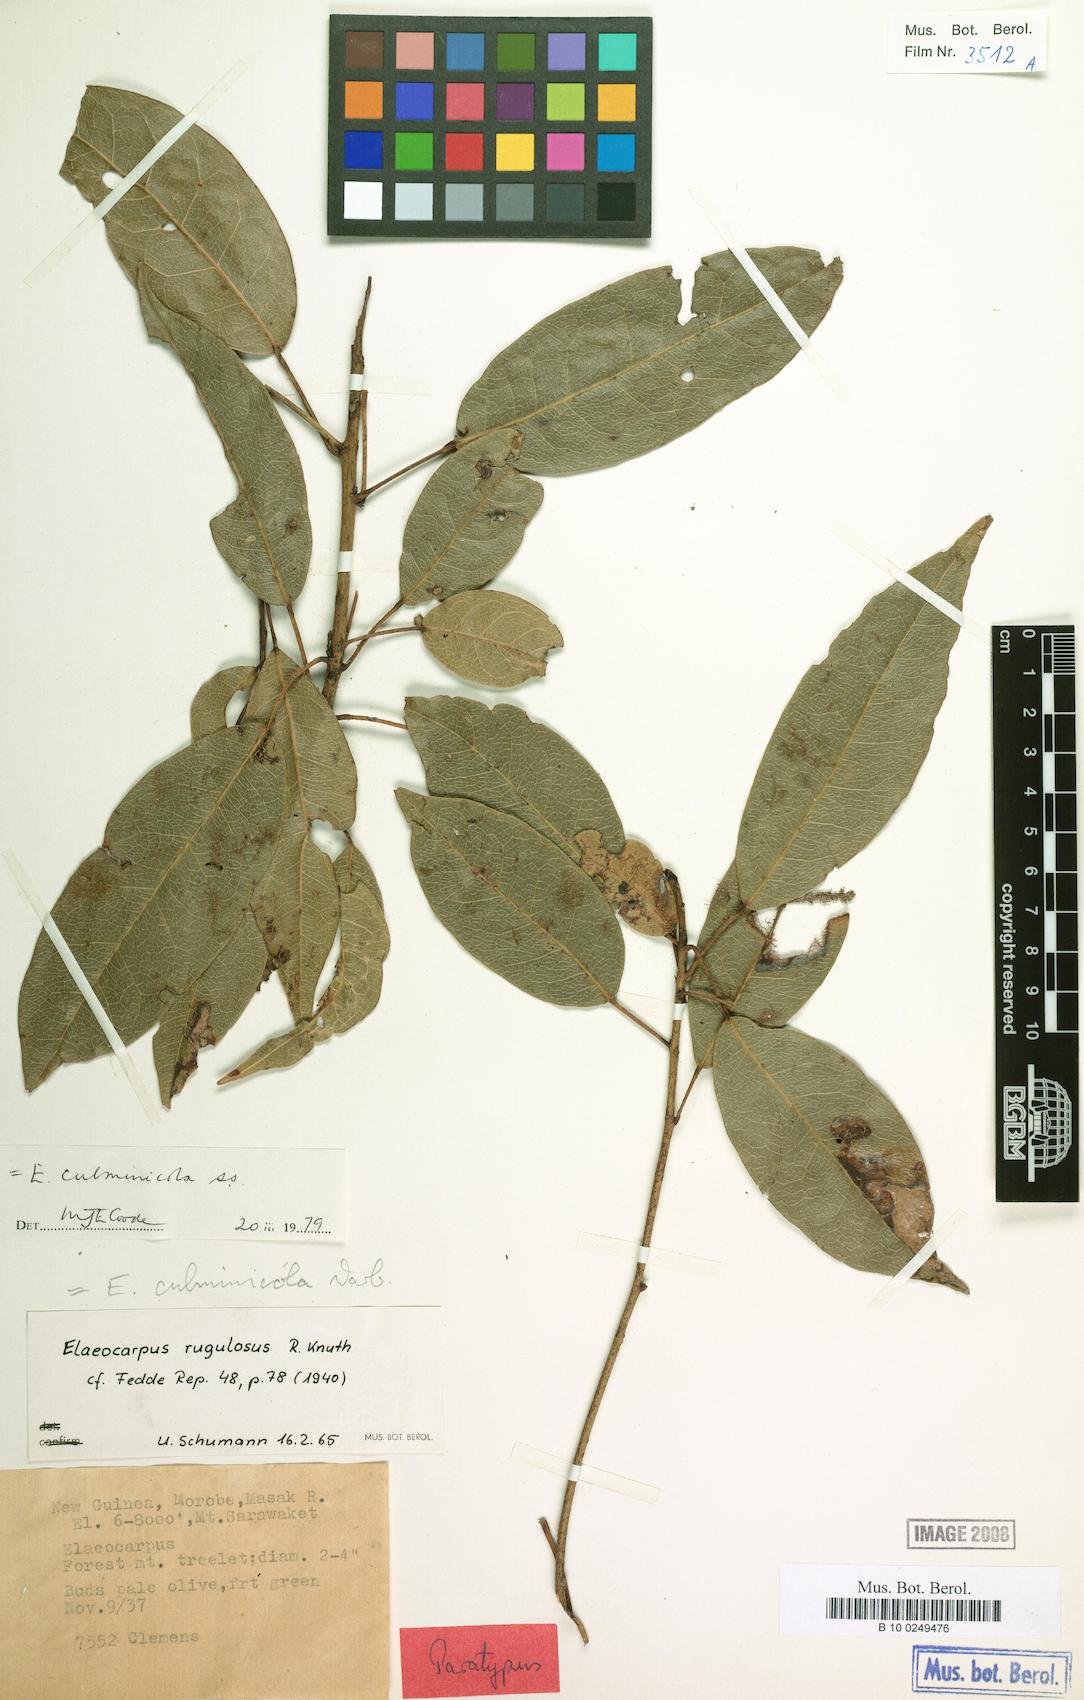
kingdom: Plantae
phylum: Tracheophyta
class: Magnoliopsida
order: Oxalidales
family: Elaeocarpaceae
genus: Elaeocarpus
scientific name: Elaeocarpus culminicola
